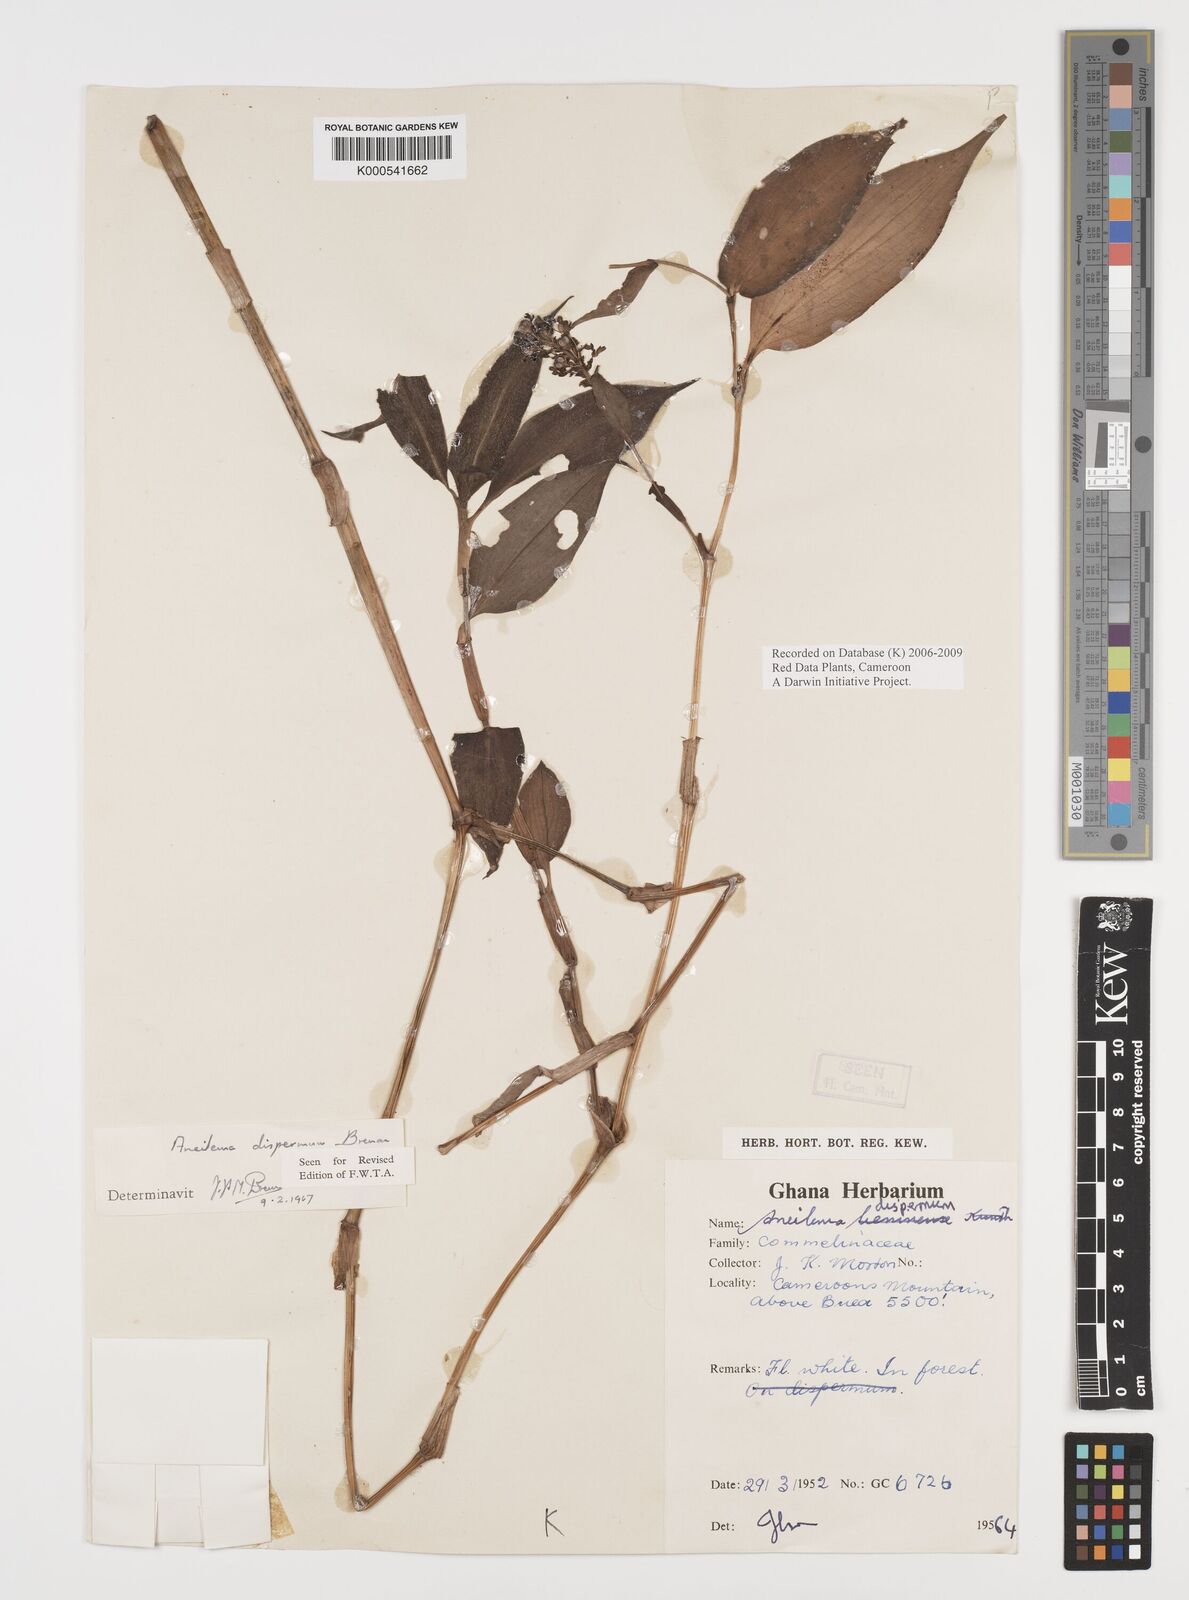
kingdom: Plantae
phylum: Tracheophyta
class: Liliopsida
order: Commelinales
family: Commelinaceae
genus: Aneilema
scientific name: Aneilema dispermum
